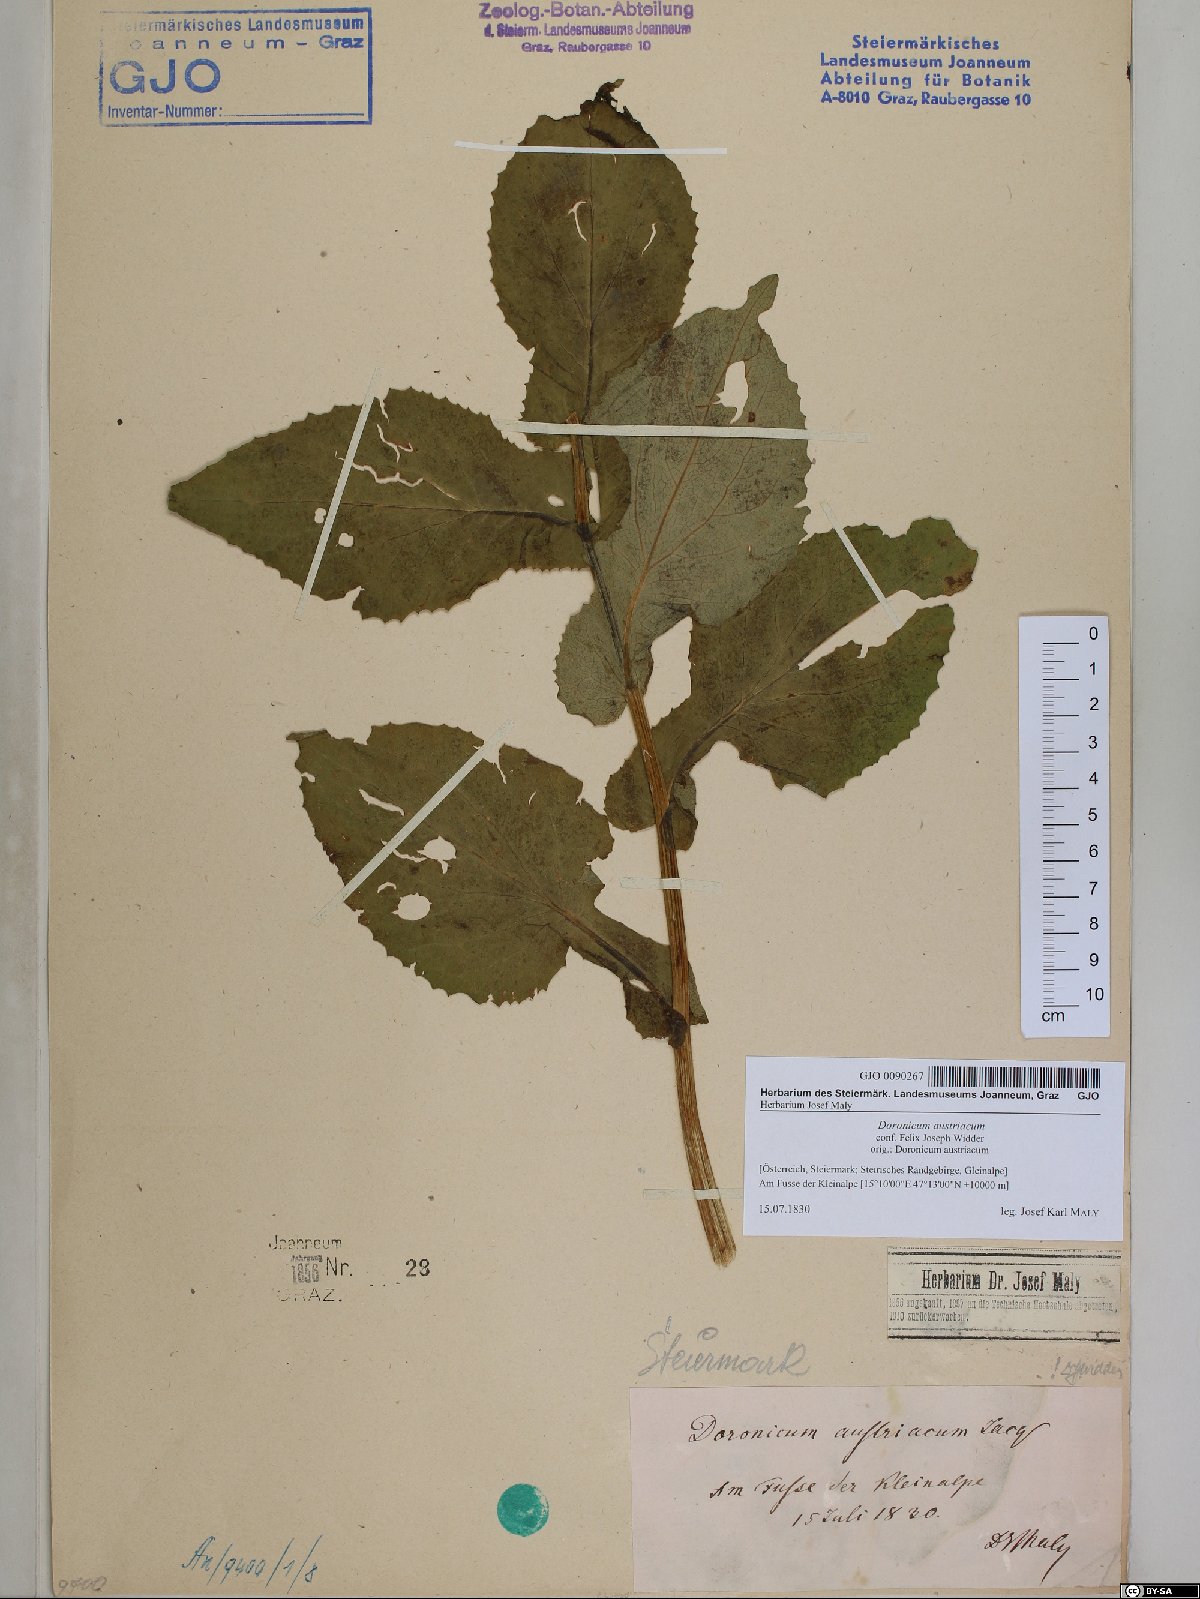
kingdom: Plantae
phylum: Tracheophyta
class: Magnoliopsida
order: Asterales
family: Asteraceae
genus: Doronicum
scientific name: Doronicum austriacum
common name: Austrian leopard's-bane
